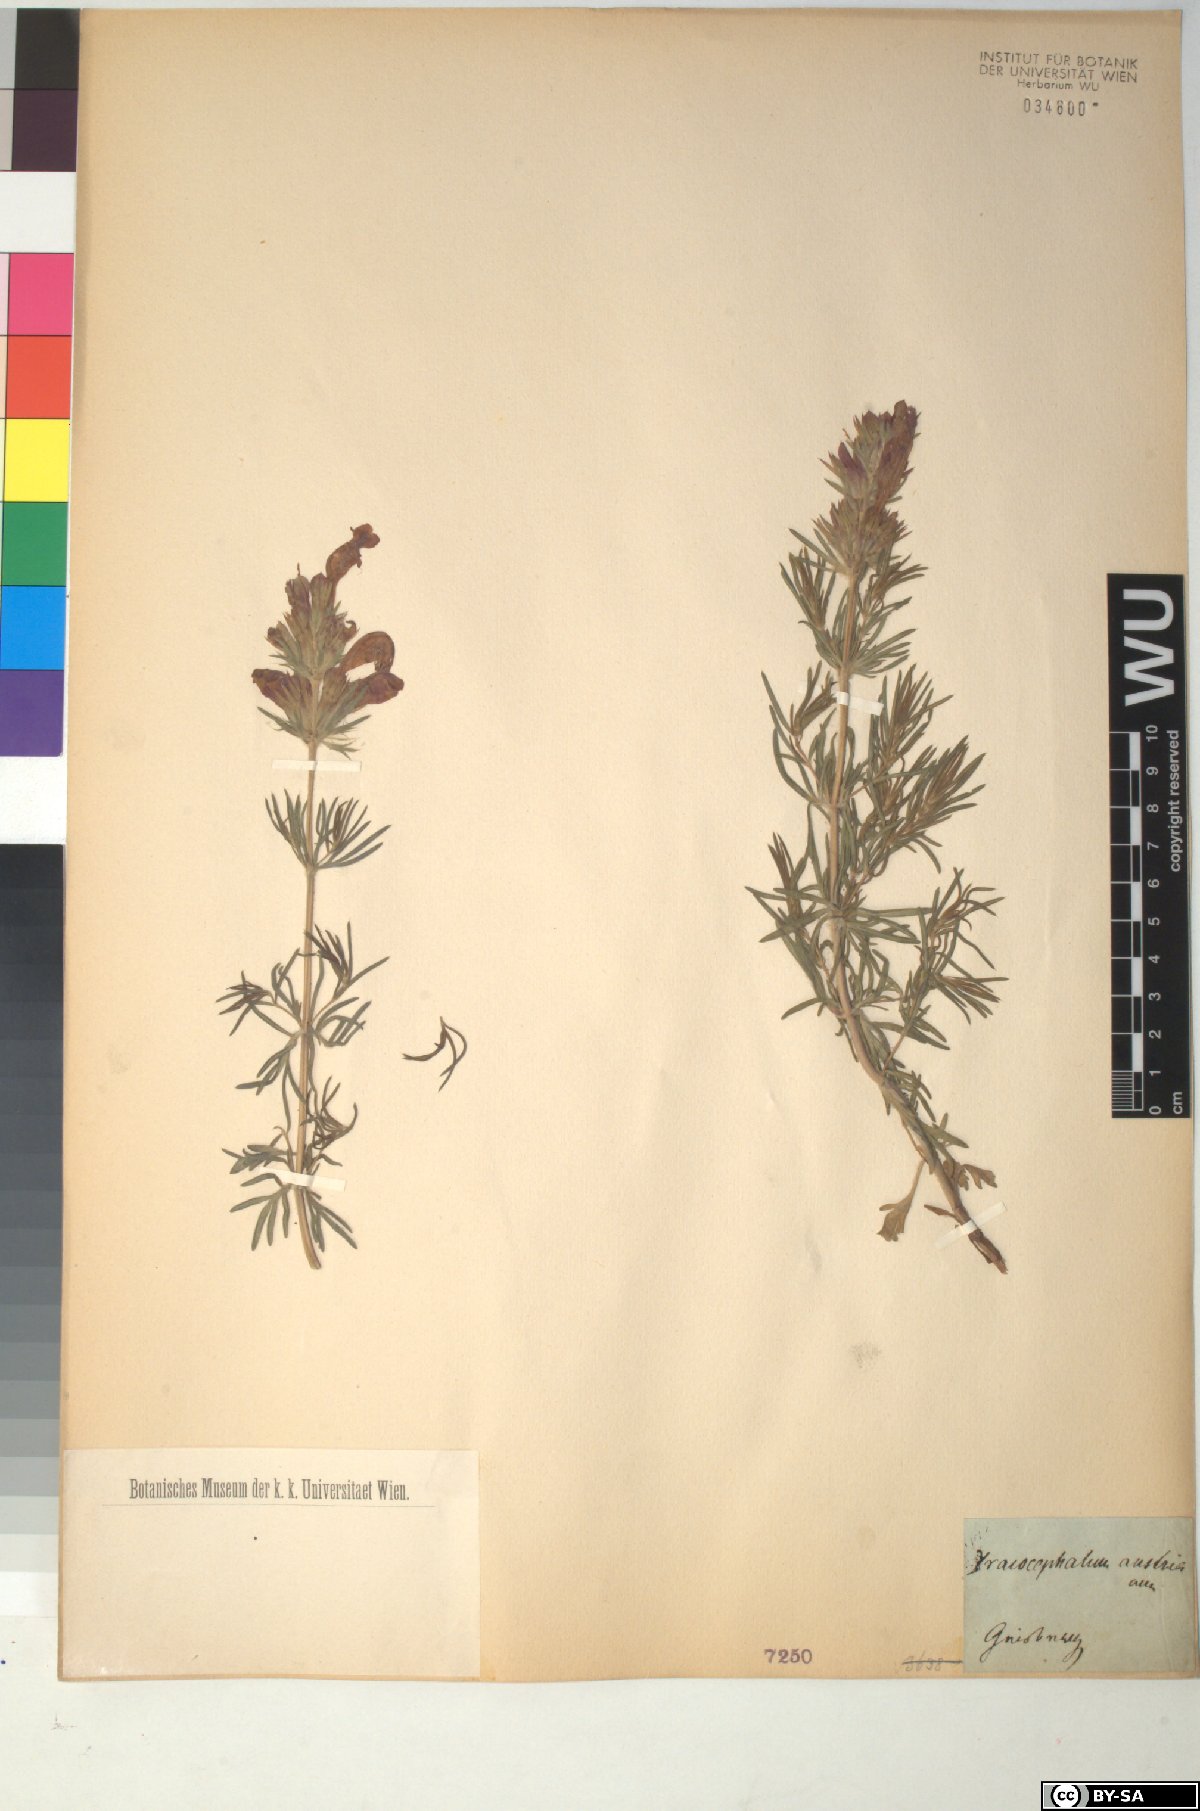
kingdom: Plantae
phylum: Tracheophyta
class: Magnoliopsida
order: Lamiales
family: Lamiaceae
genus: Dracocephalum
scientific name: Dracocephalum austriacum
